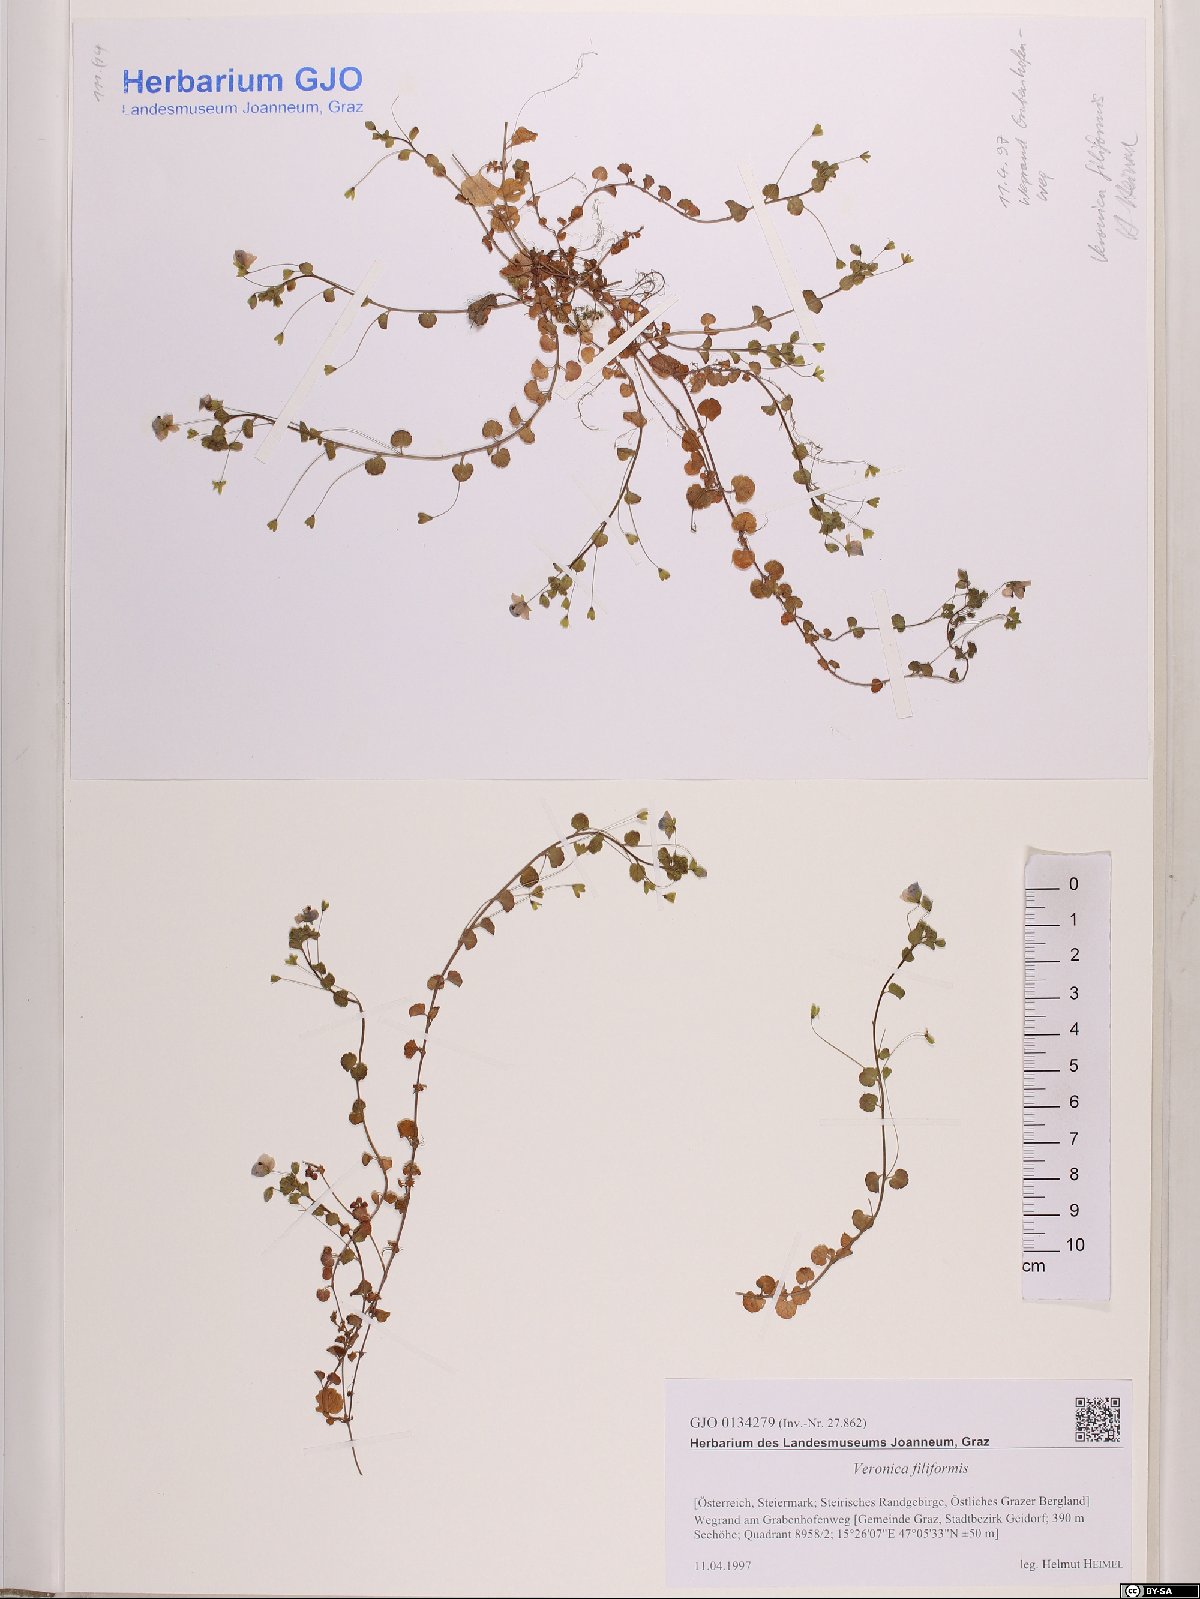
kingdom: Plantae
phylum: Tracheophyta
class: Magnoliopsida
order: Lamiales
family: Plantaginaceae
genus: Veronica
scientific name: Veronica filiformis
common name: Slender speedwell
